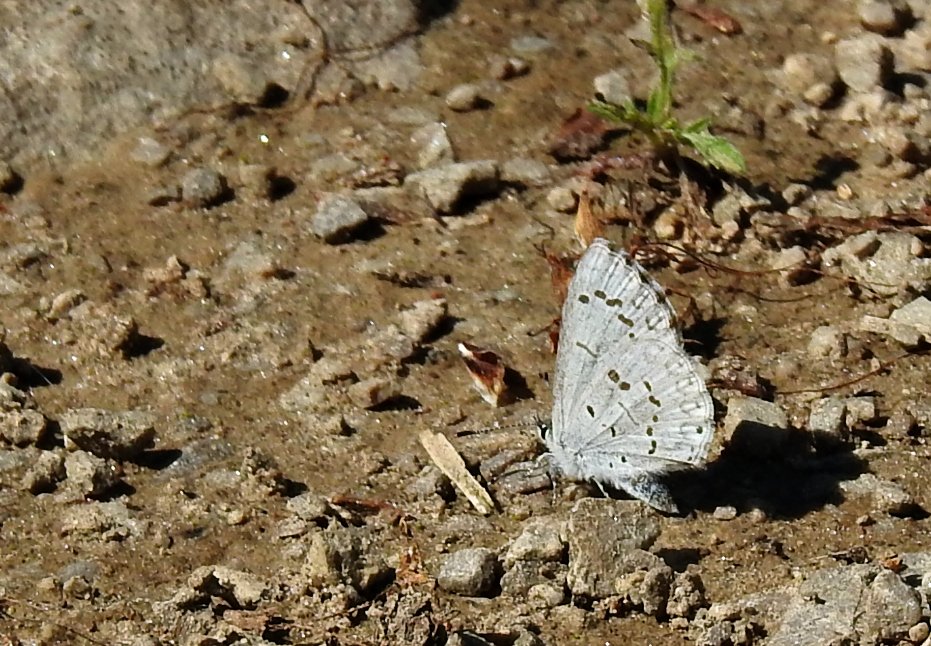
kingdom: Animalia
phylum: Arthropoda
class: Insecta
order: Lepidoptera
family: Lycaenidae
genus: Celastrina
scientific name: Celastrina
